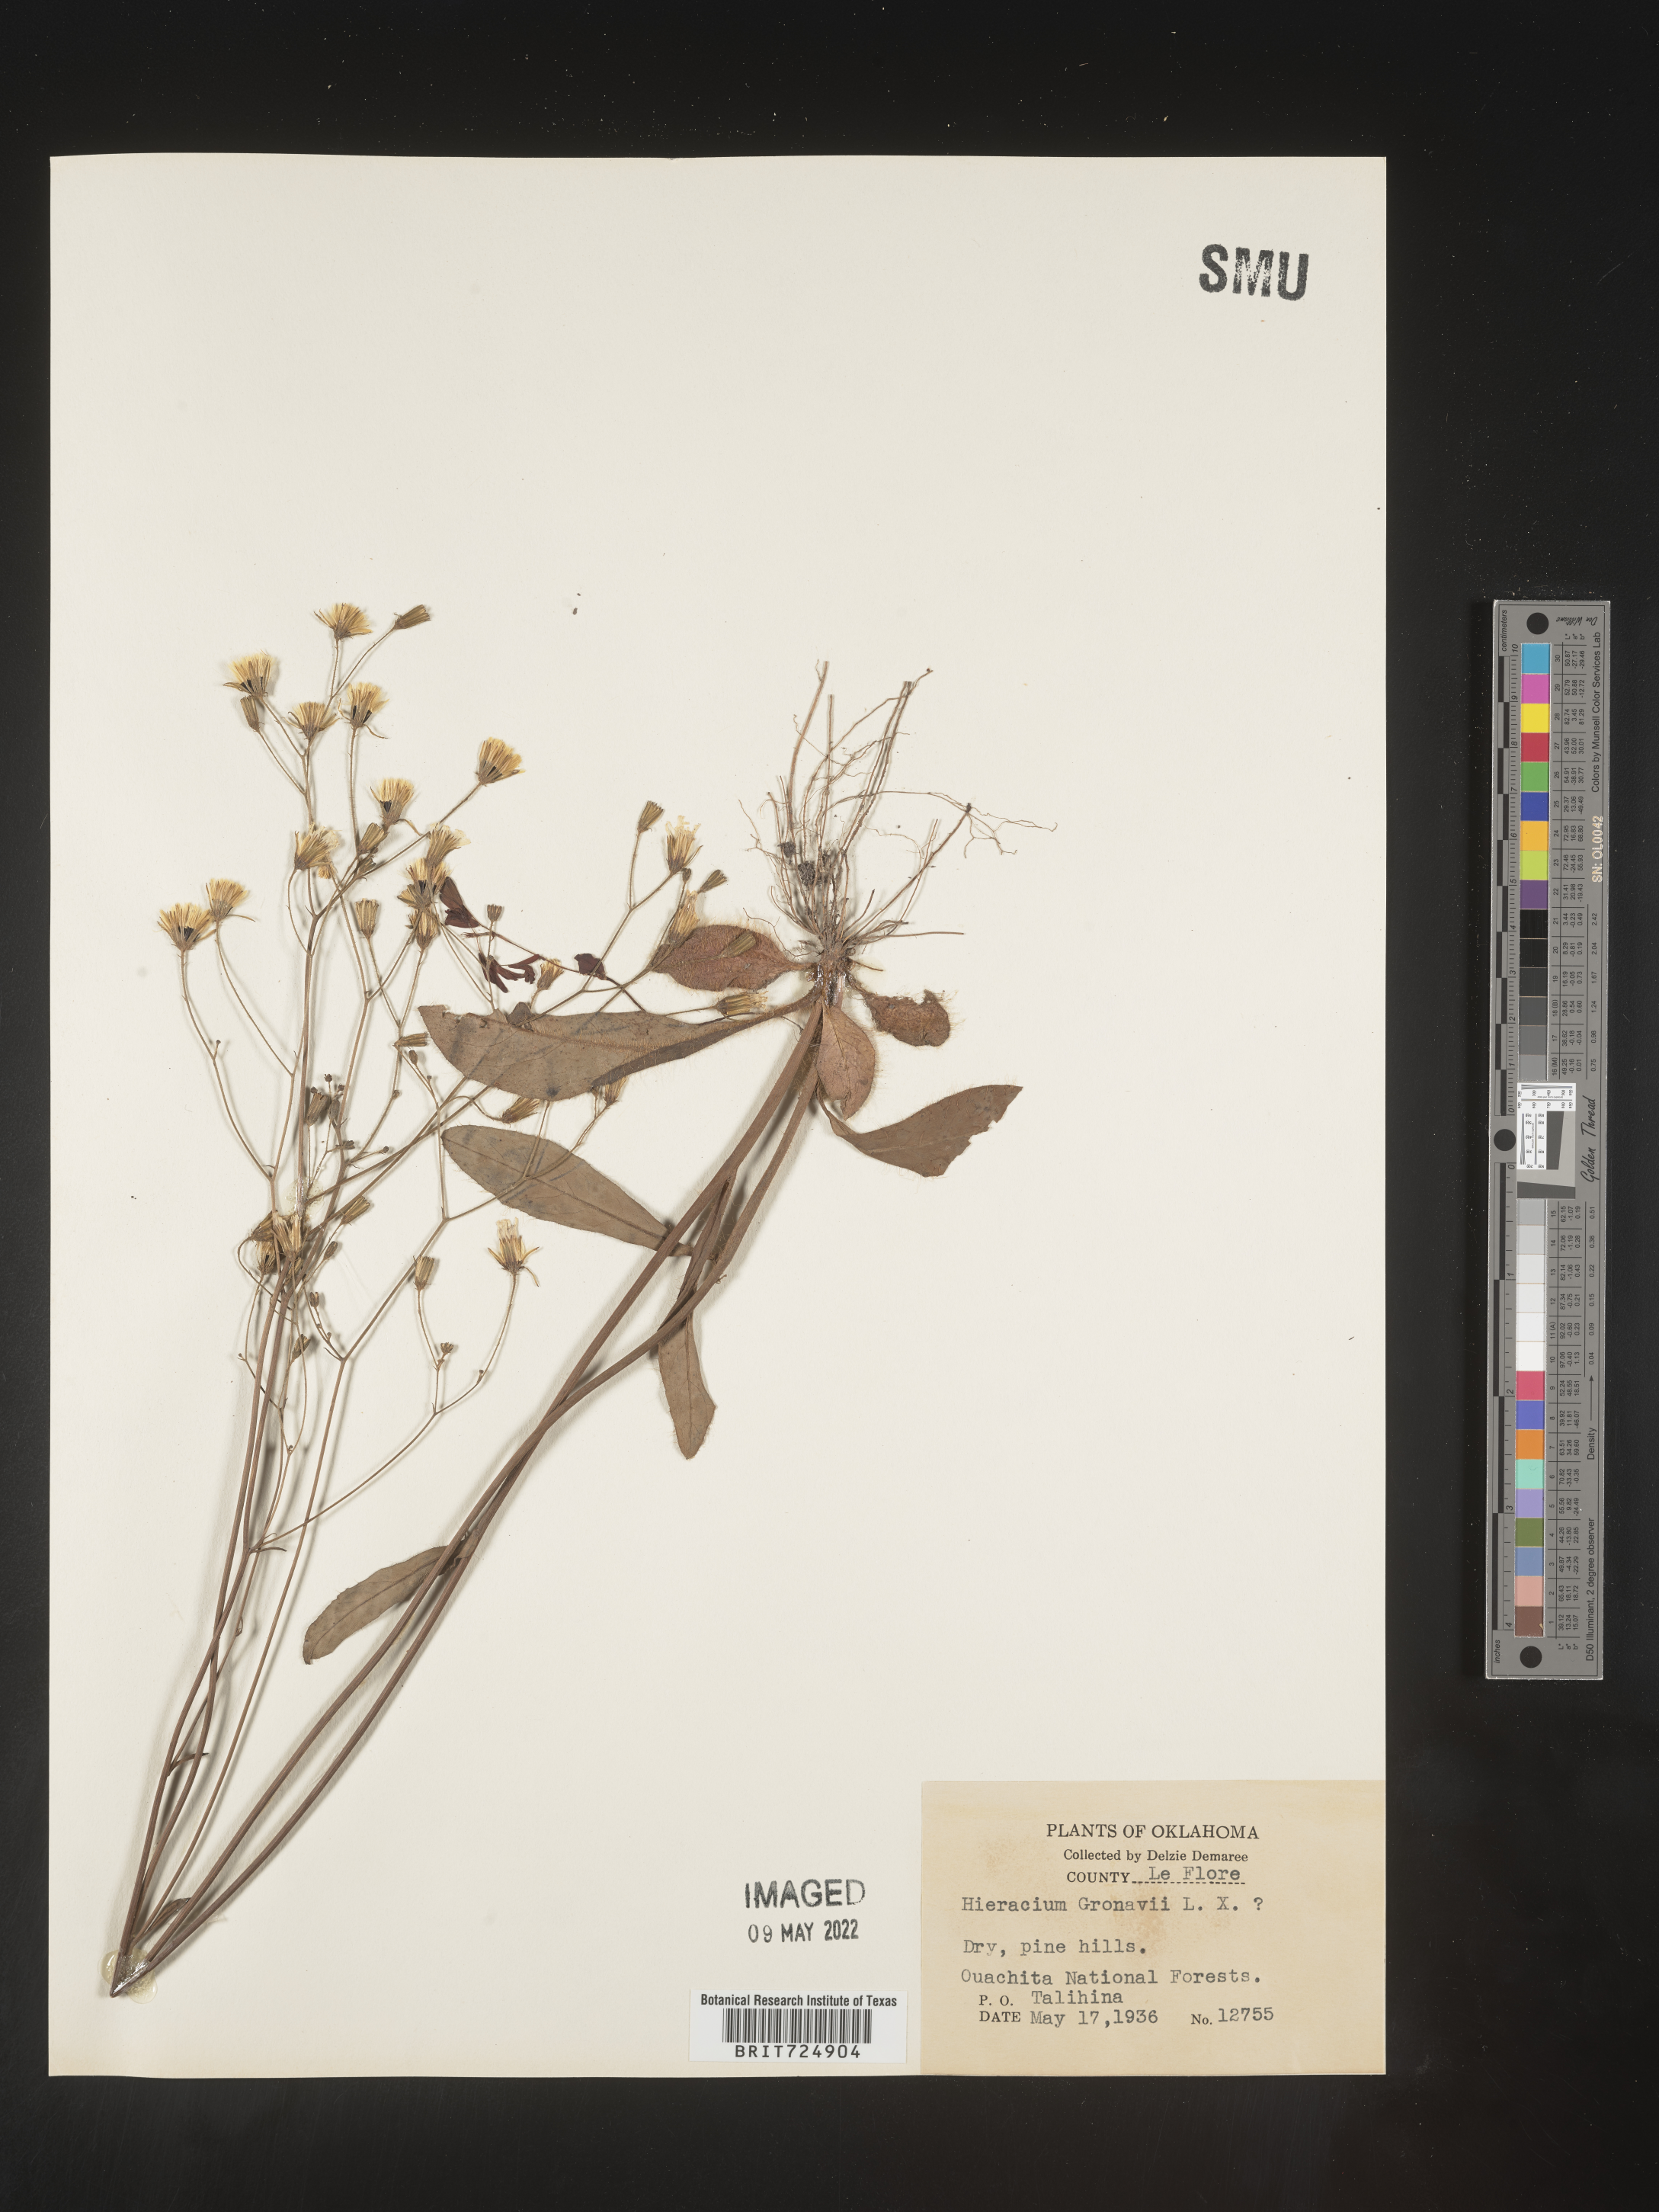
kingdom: Plantae
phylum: Tracheophyta
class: Magnoliopsida
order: Asterales
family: Asteraceae
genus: Hieracium
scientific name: Hieracium gronovii
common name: Beaked hawkweed
